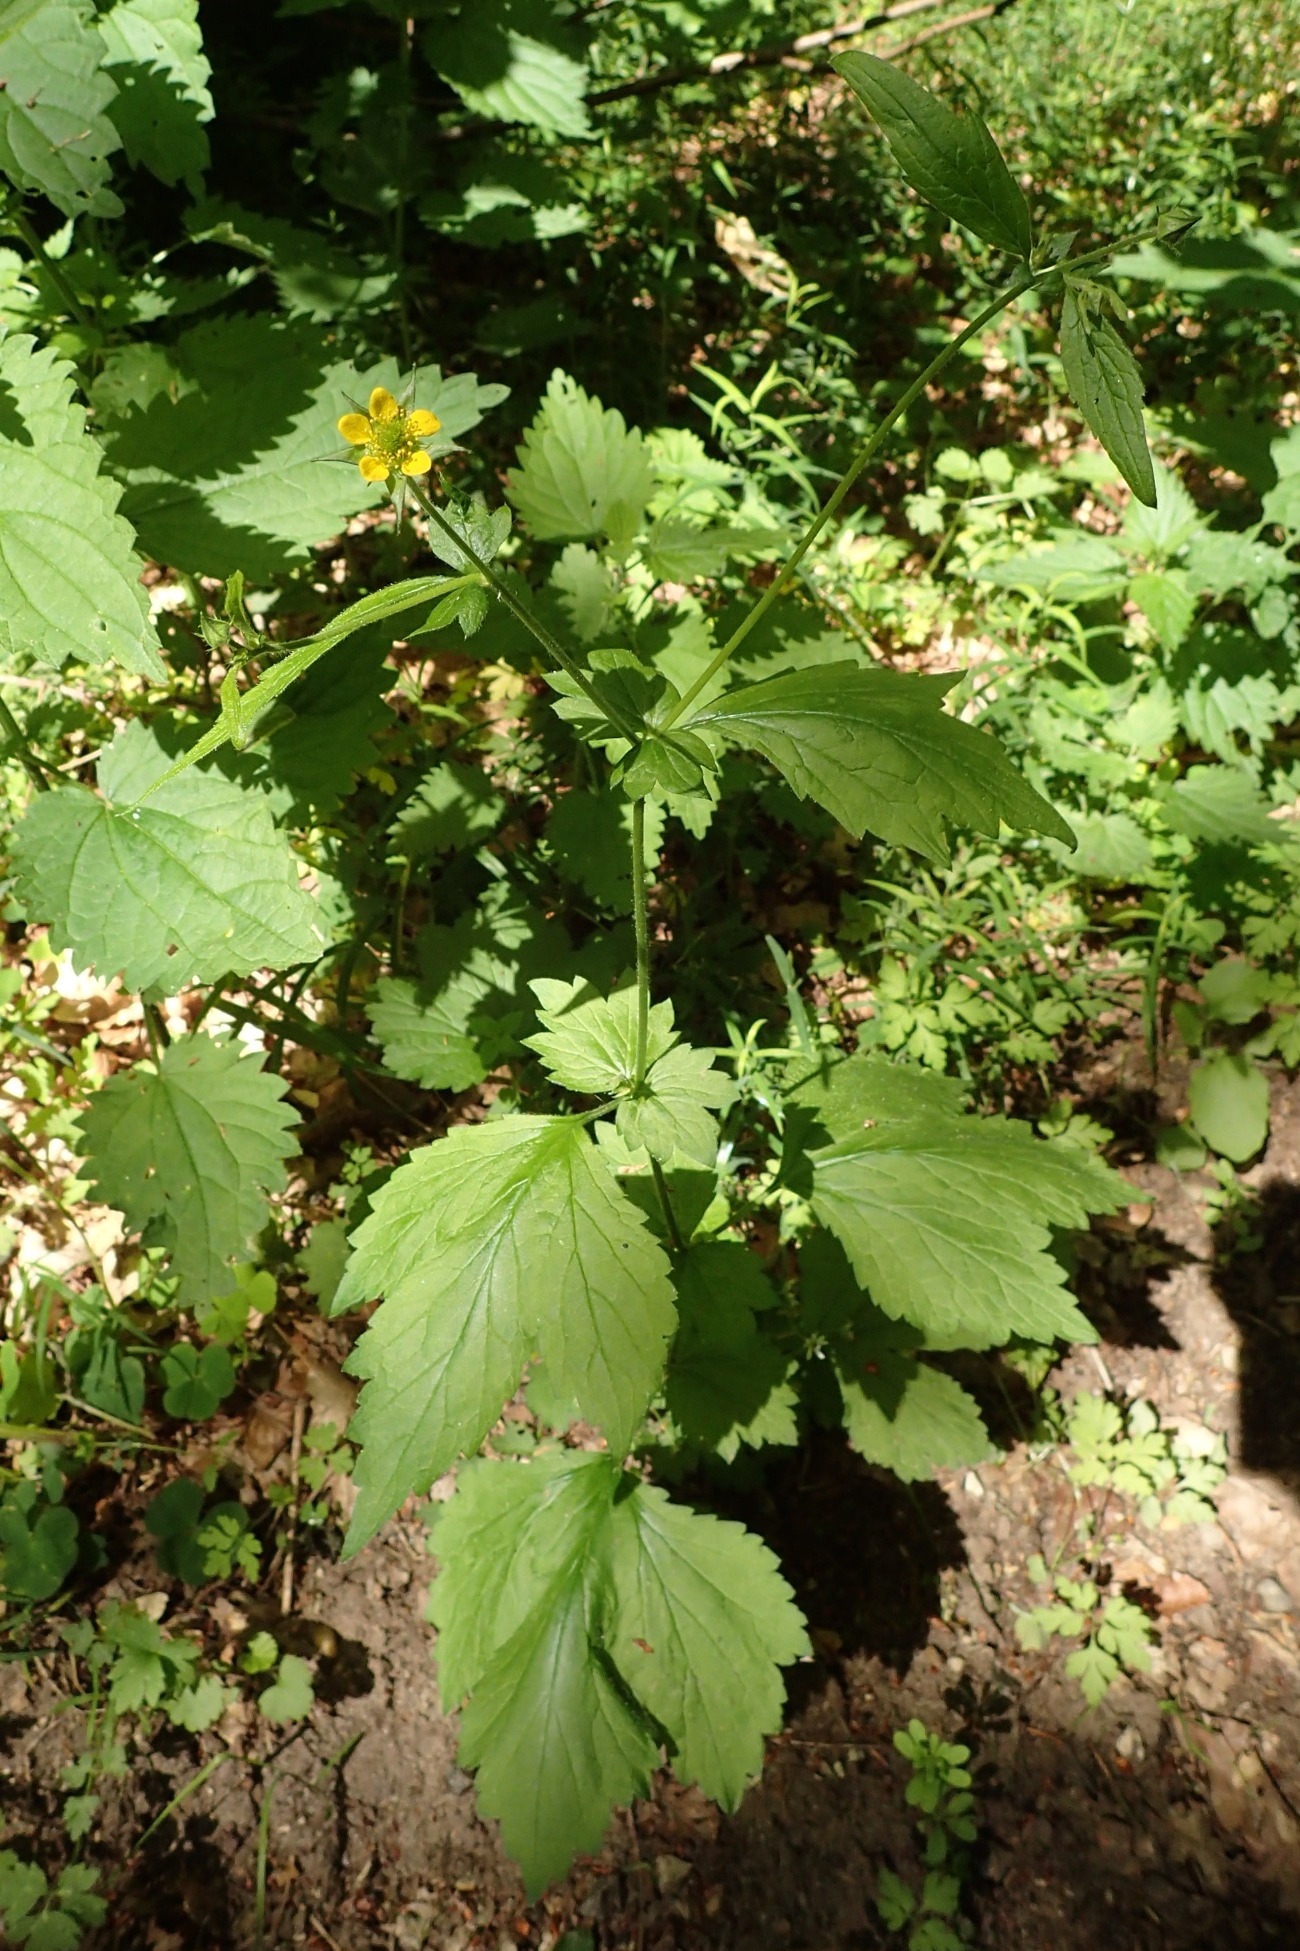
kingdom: Plantae
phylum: Tracheophyta
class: Magnoliopsida
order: Rosales
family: Rosaceae
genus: Geum
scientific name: Geum urbanum
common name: Feber-nellikerod
